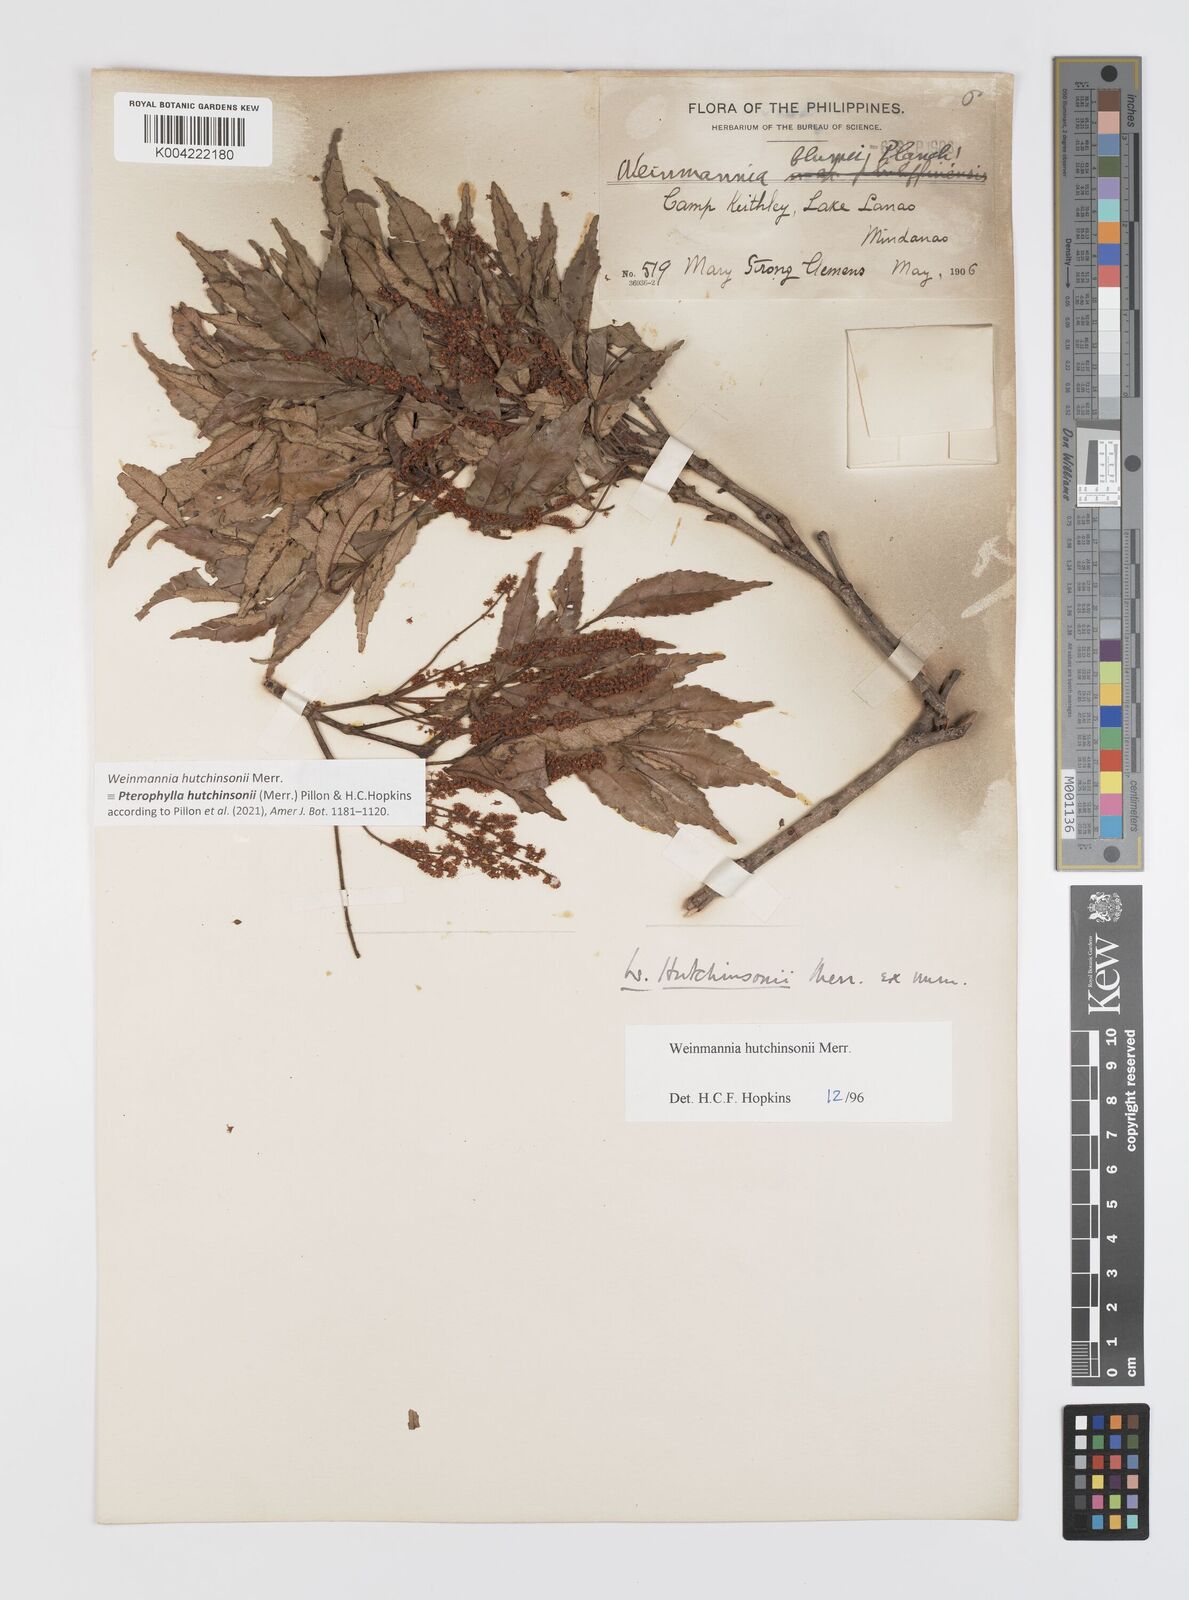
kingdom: Plantae
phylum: Tracheophyta
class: Magnoliopsida
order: Oxalidales
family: Cunoniaceae
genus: Pterophylla
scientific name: Pterophylla hutchinsonii
